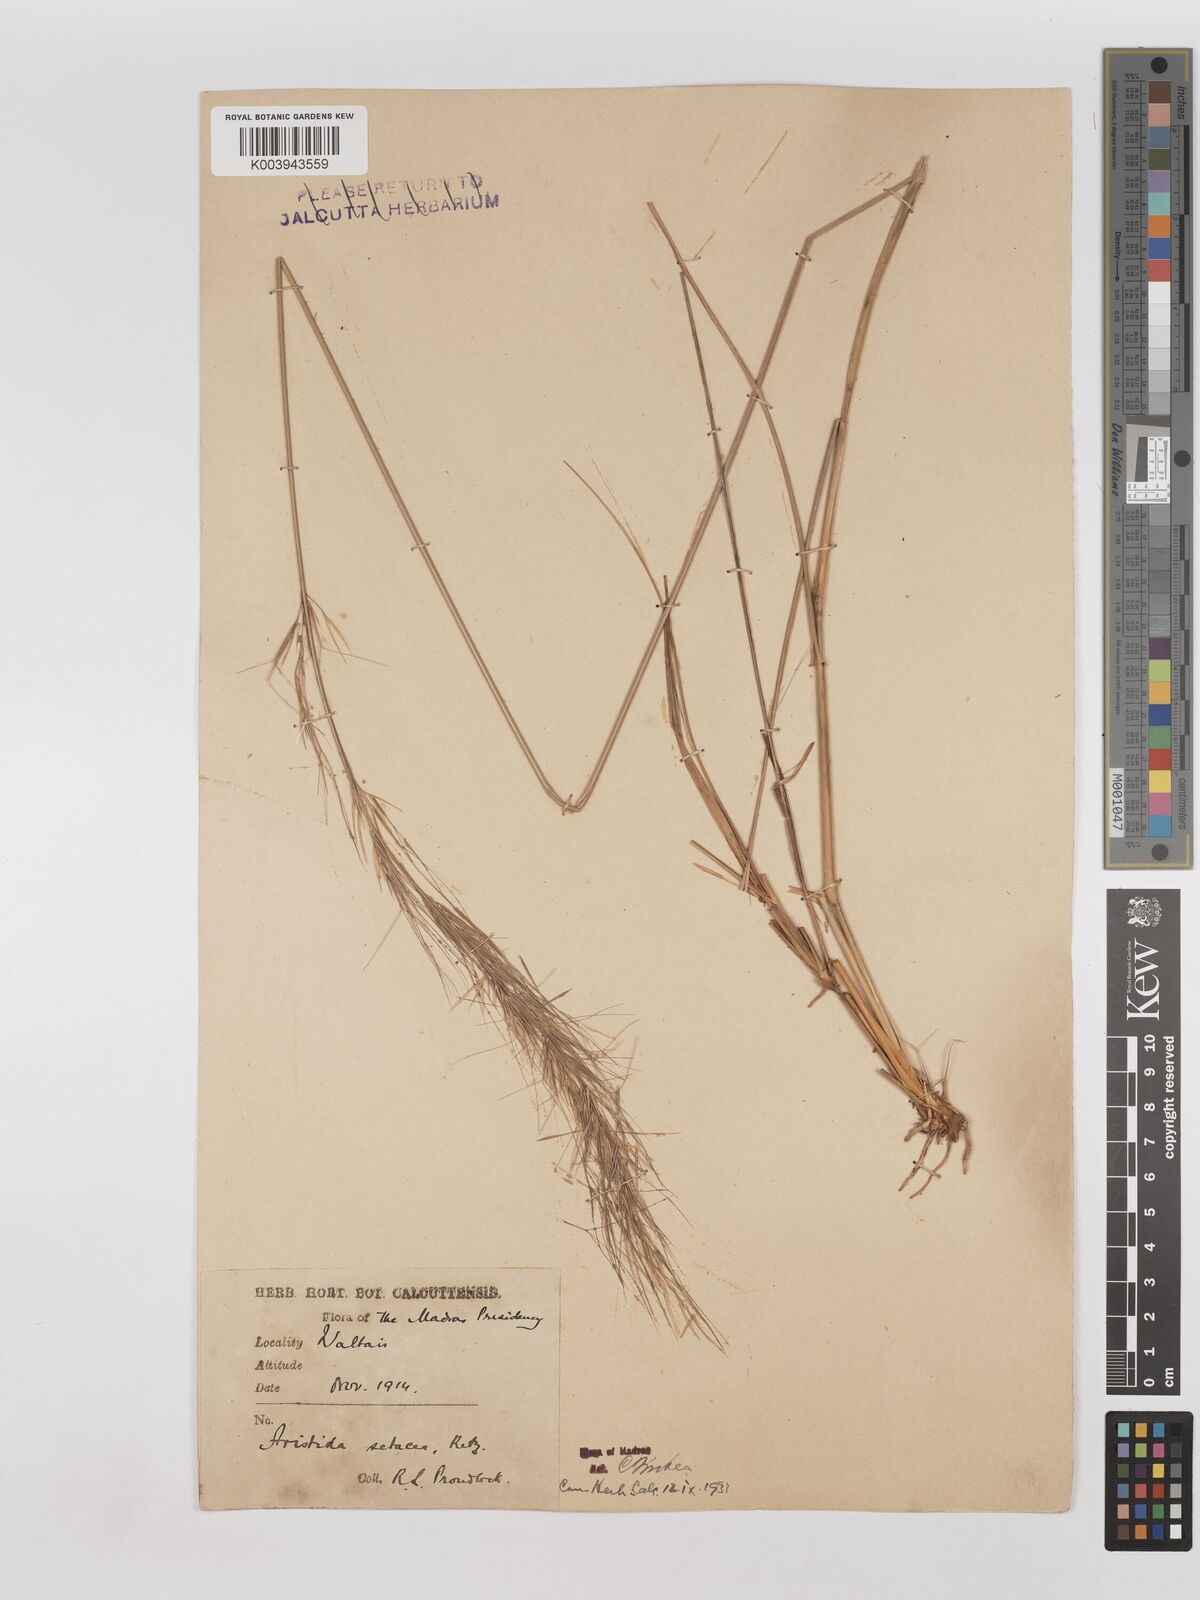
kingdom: Plantae
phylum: Tracheophyta
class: Liliopsida
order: Poales
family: Poaceae
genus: Aristida
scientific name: Aristida setacea
